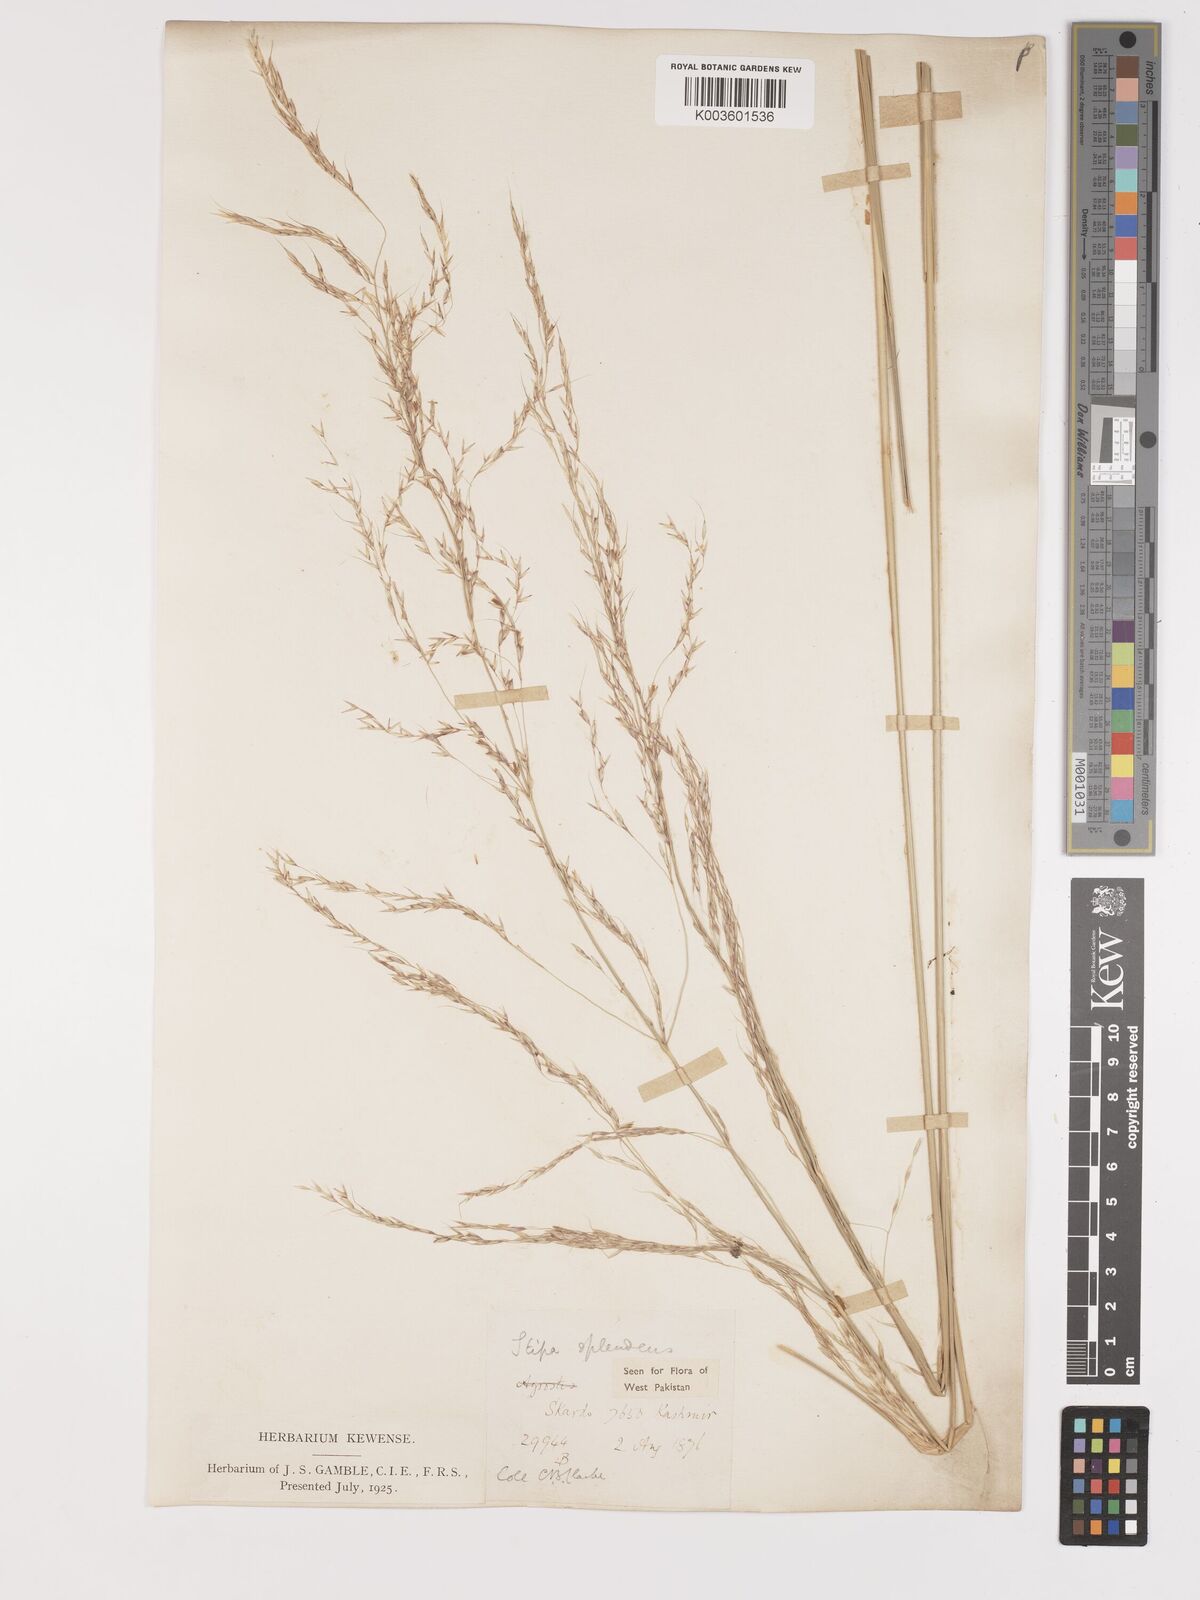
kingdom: Plantae
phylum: Tracheophyta
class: Liliopsida
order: Poales
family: Poaceae
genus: Neotrinia
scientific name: Neotrinia splendens
